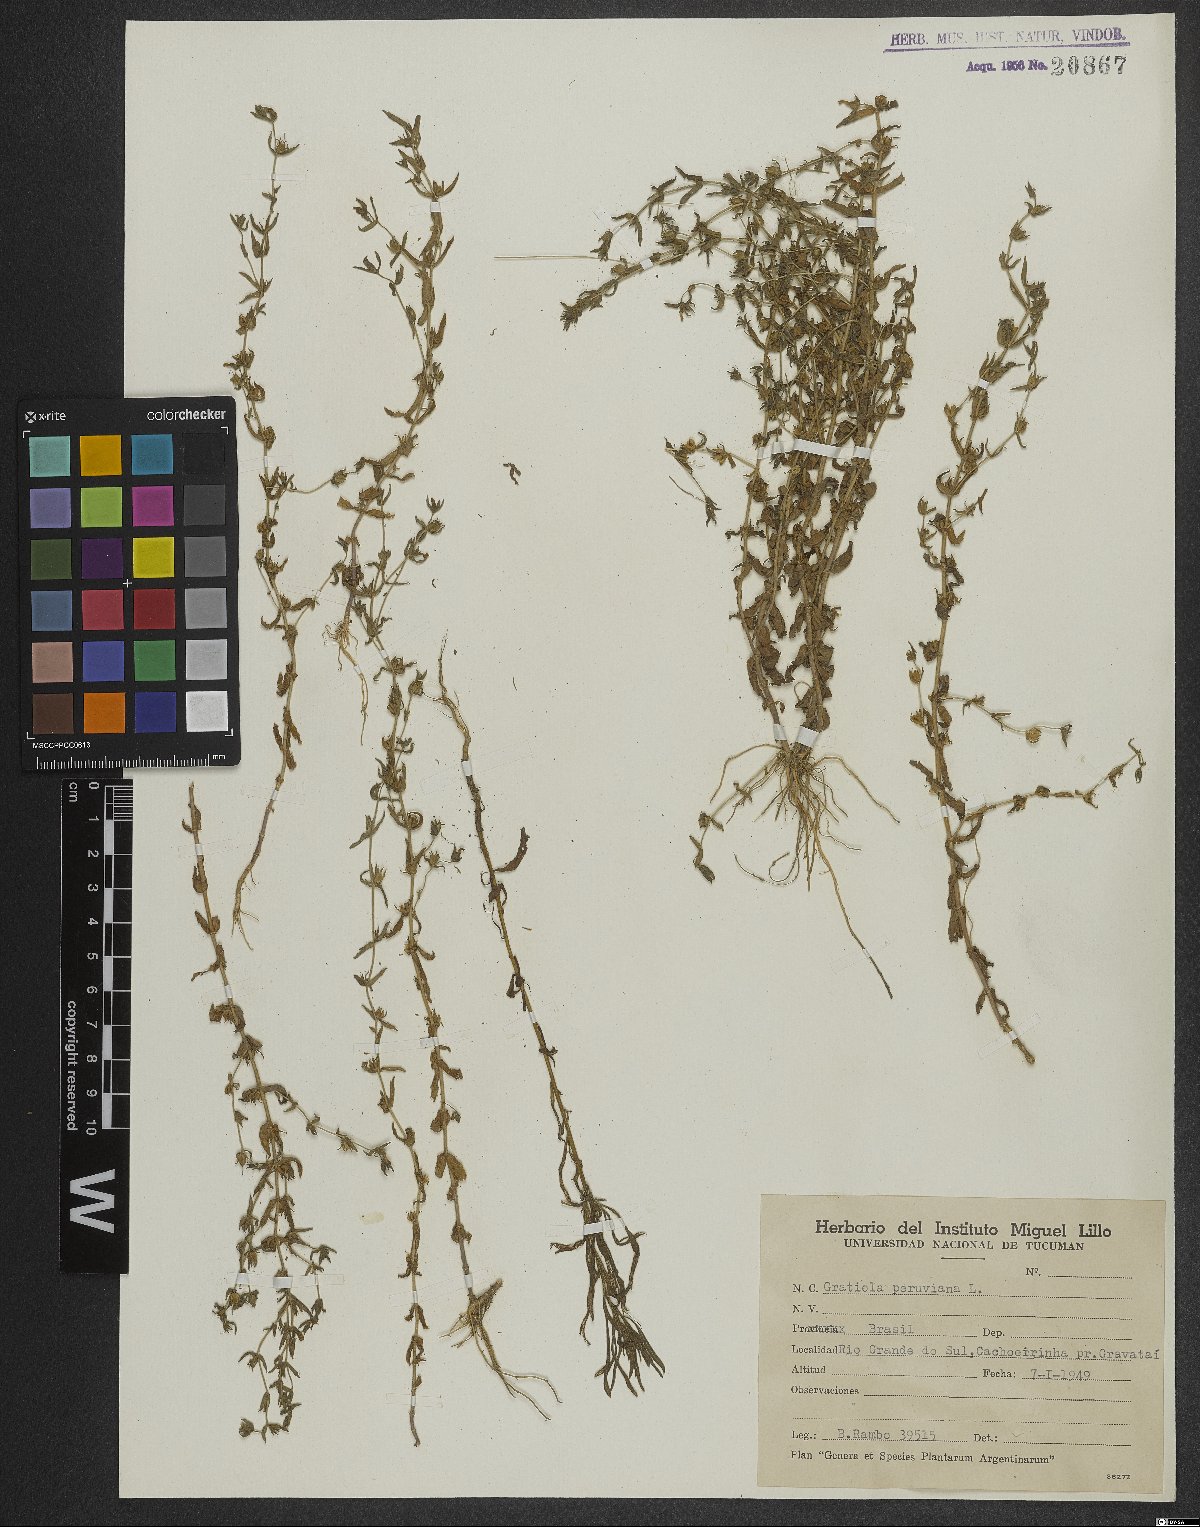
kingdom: Plantae
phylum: Tracheophyta
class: Magnoliopsida
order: Lamiales
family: Plantaginaceae
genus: Gratiola
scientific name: Gratiola peruviana
